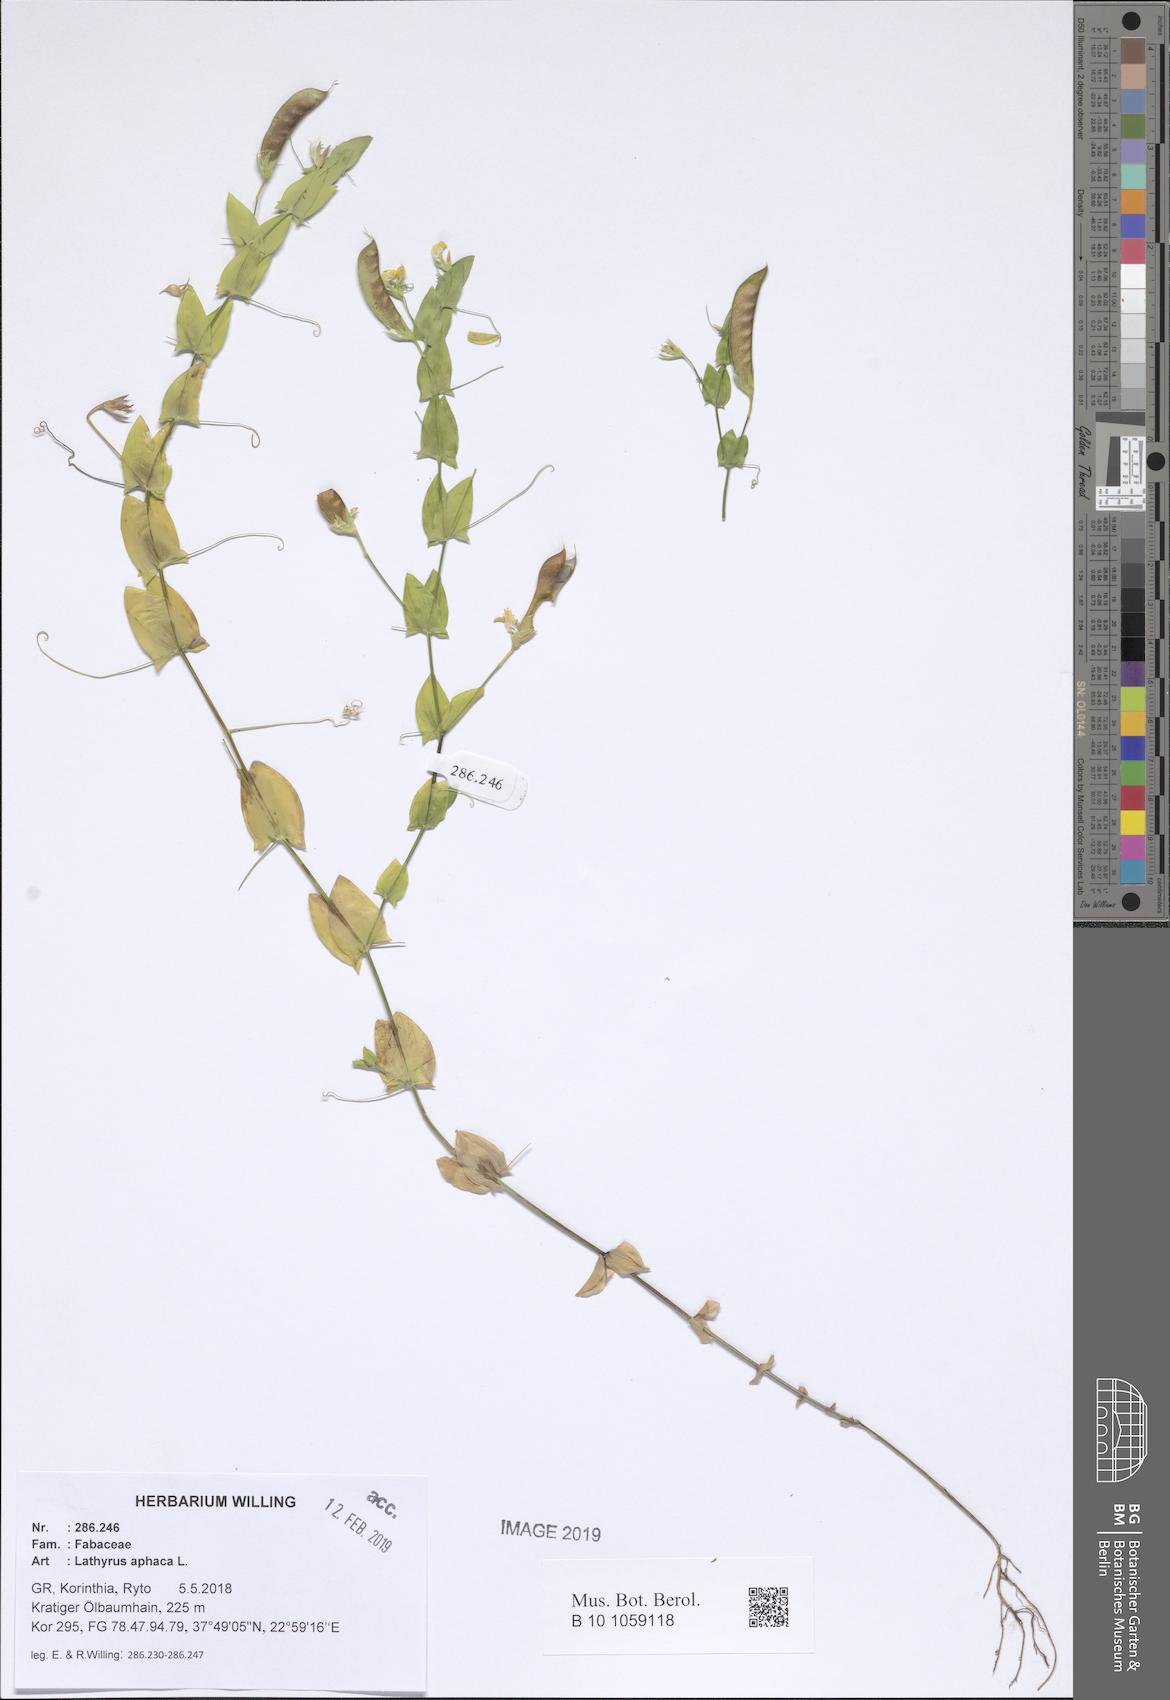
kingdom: Plantae
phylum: Tracheophyta
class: Magnoliopsida
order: Fabales
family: Fabaceae
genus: Lathyrus
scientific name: Lathyrus aphaca
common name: Yellow vetchling
